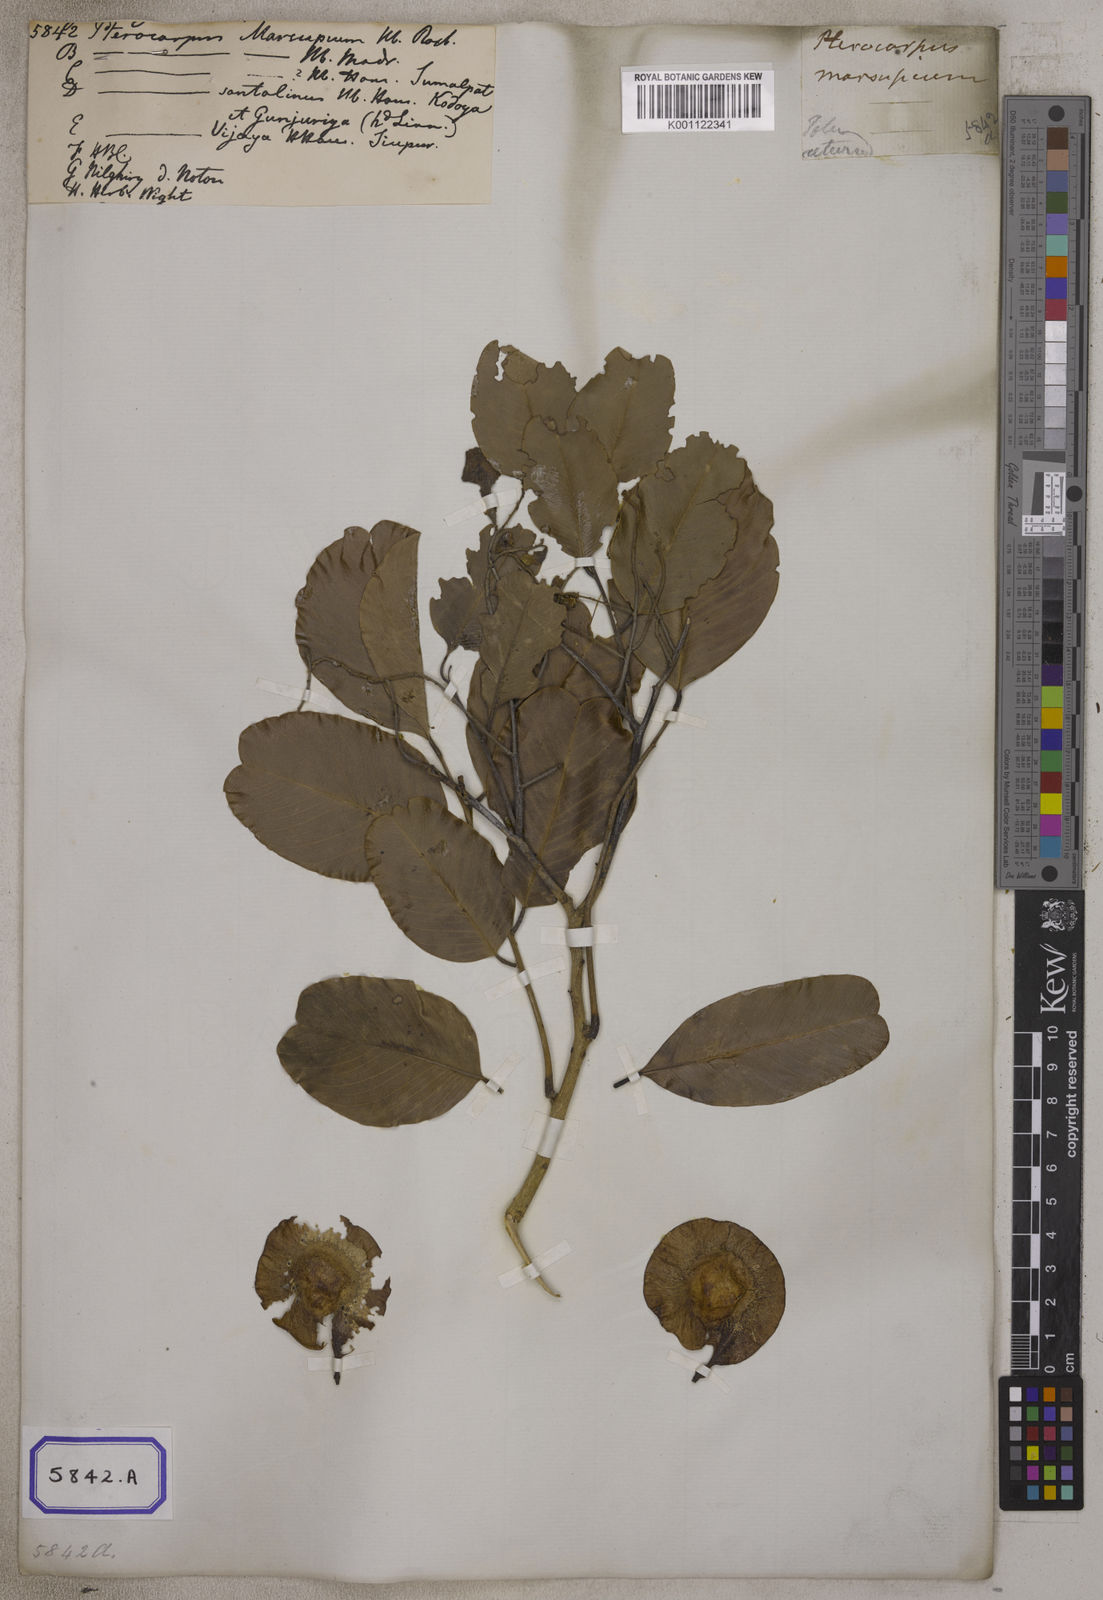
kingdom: Plantae
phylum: Tracheophyta
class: Magnoliopsida
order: Fabales
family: Fabaceae
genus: Pterocarpus
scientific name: Pterocarpus marsupium
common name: East indian/malabar kino
